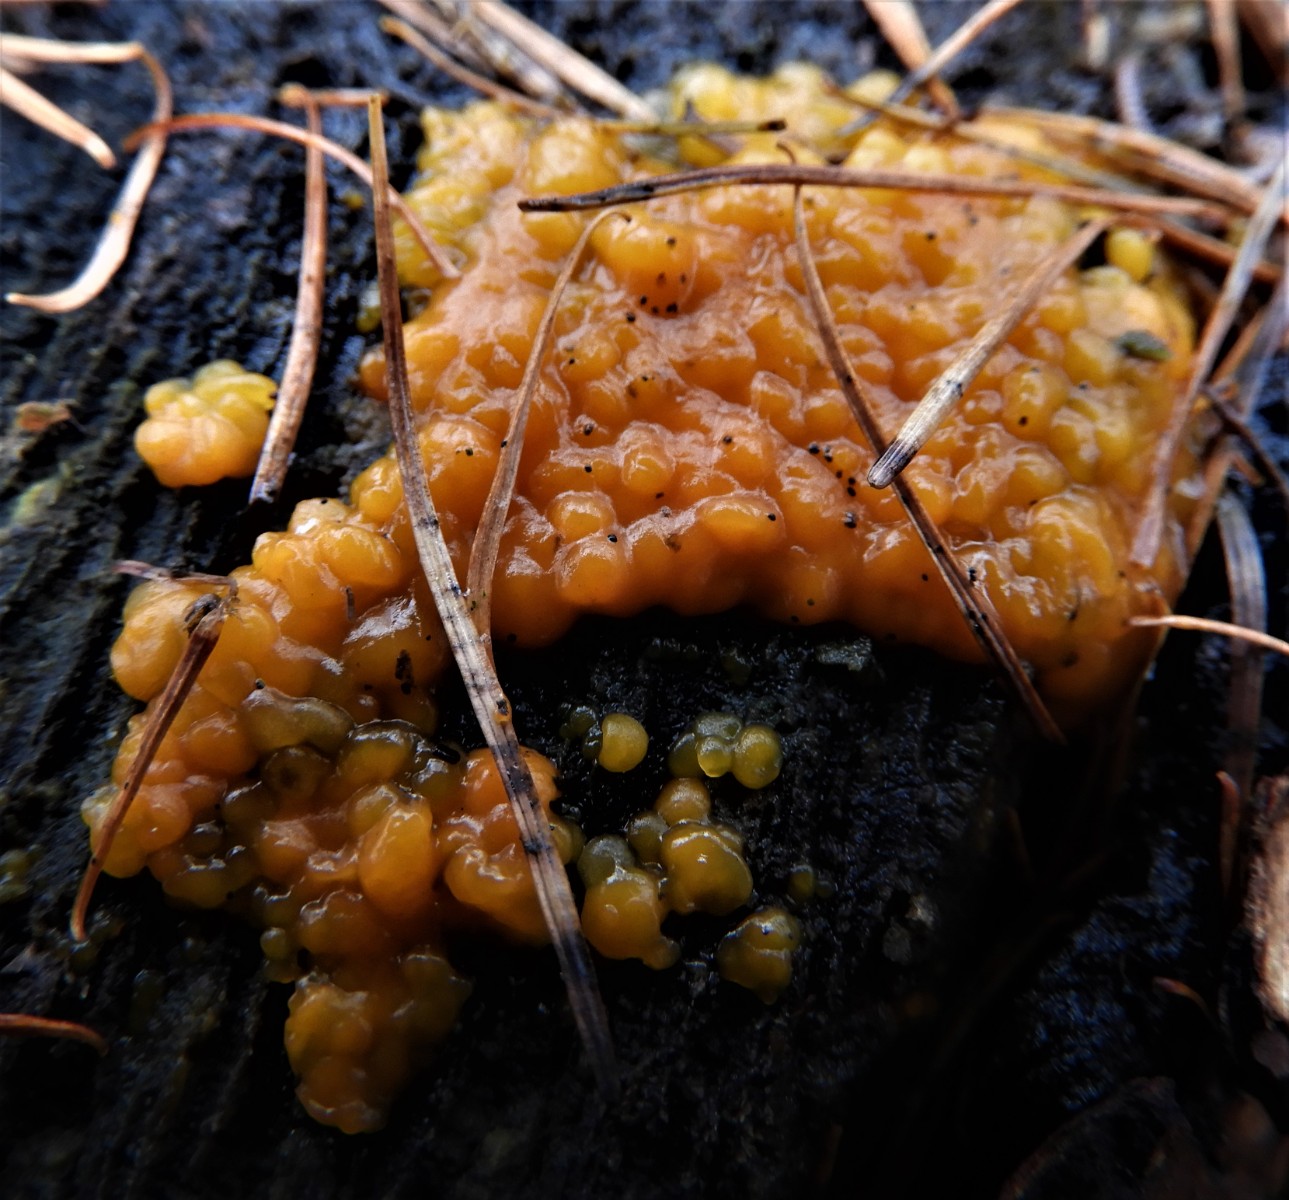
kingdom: Fungi
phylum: Basidiomycota
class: Dacrymycetes
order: Dacrymycetales
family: Dacrymycetaceae
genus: Dacrymyces
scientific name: Dacrymyces stillatus
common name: almindelig tåresvamp
